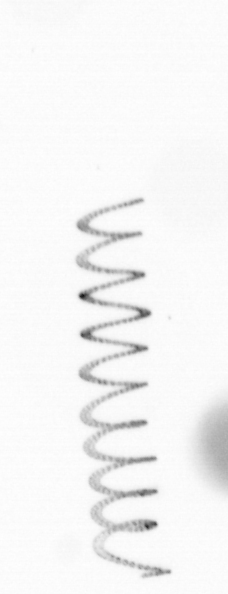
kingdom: Chromista
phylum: Ochrophyta
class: Bacillariophyceae
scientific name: Bacillariophyceae
